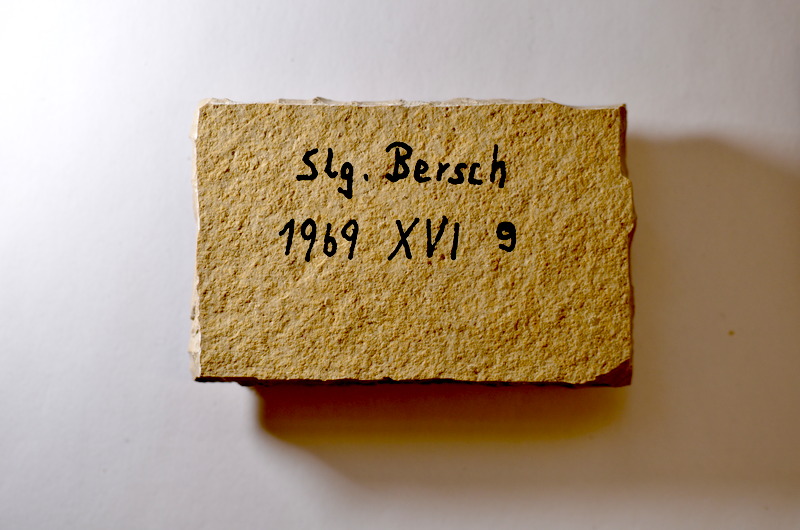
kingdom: Animalia
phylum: Chordata
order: Salmoniformes
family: Orthogonikleithridae
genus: Leptolepides
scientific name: Leptolepides sprattiformis
